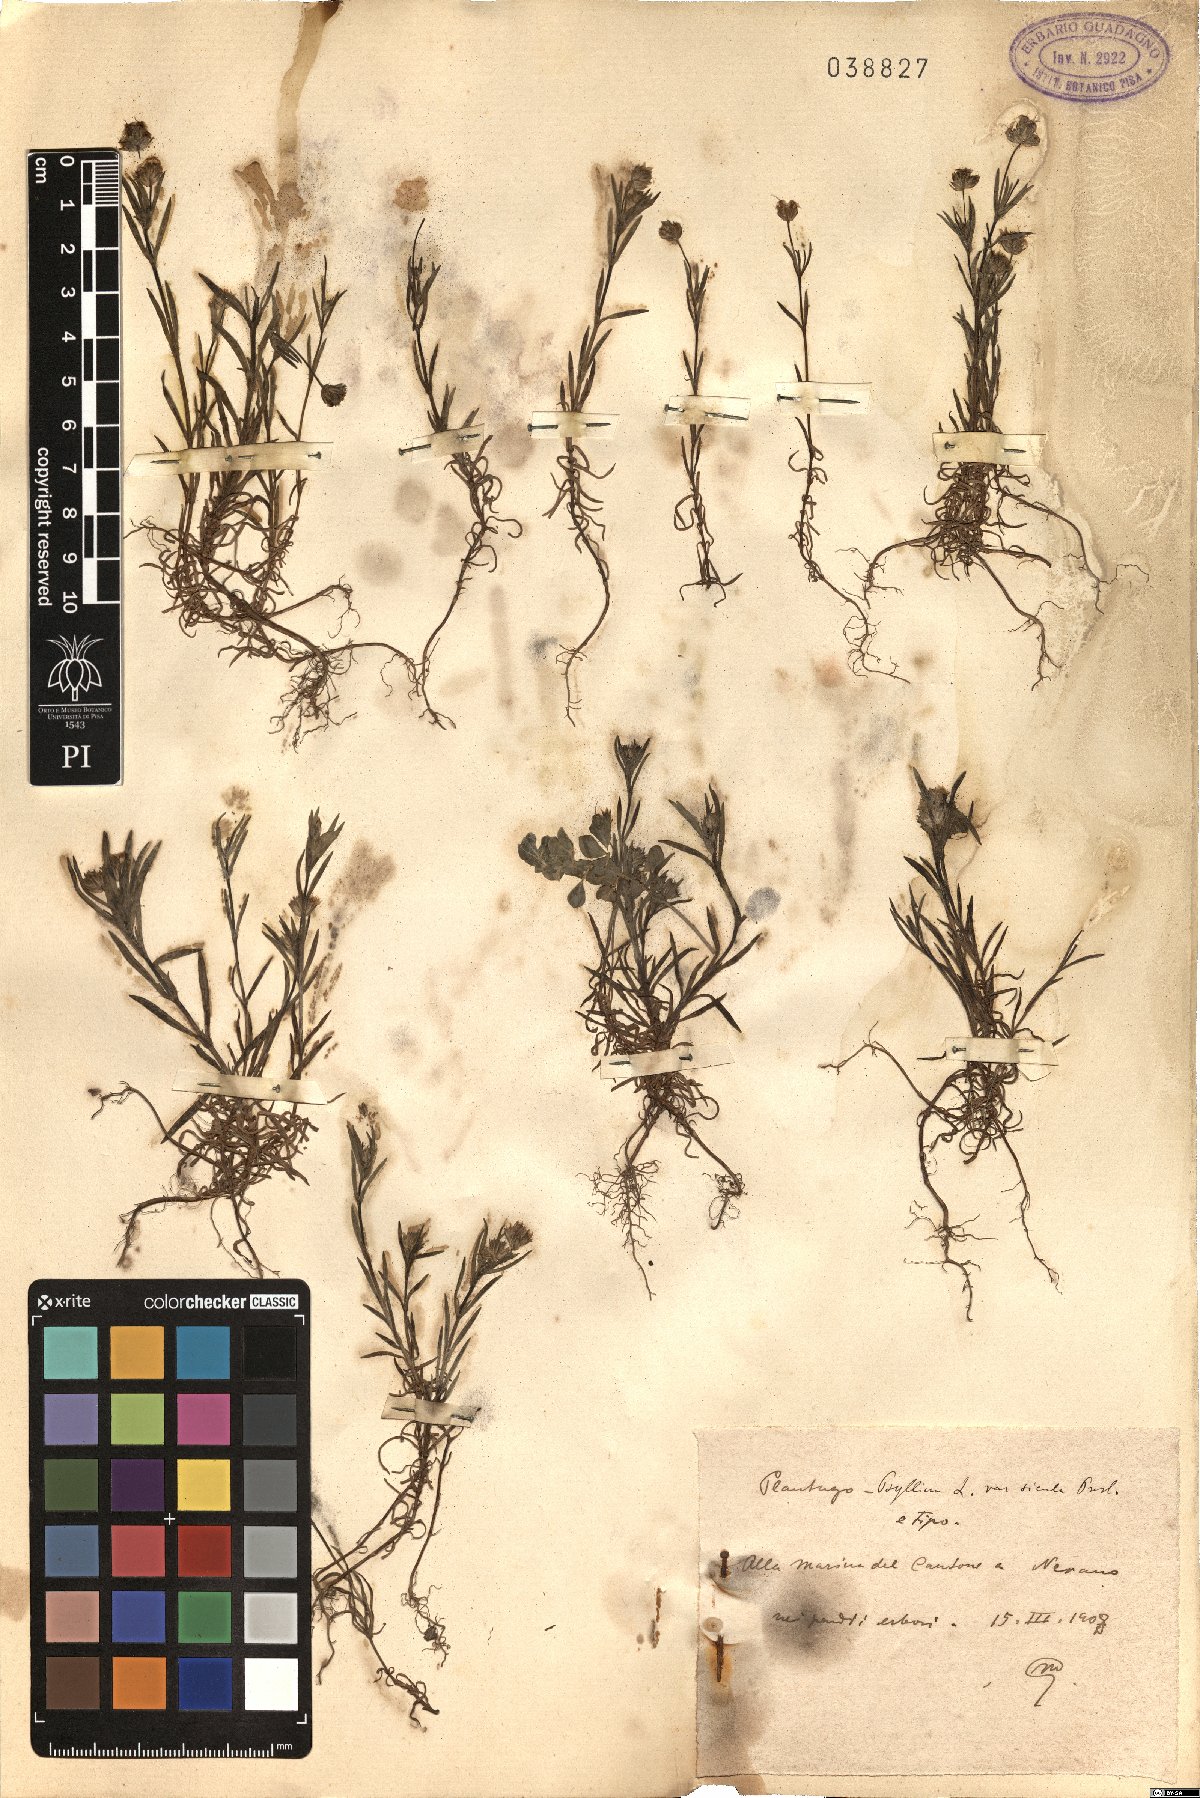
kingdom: Plantae
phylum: Tracheophyta
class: Magnoliopsida
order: Lamiales
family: Plantaginaceae
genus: Plantago
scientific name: Plantago
